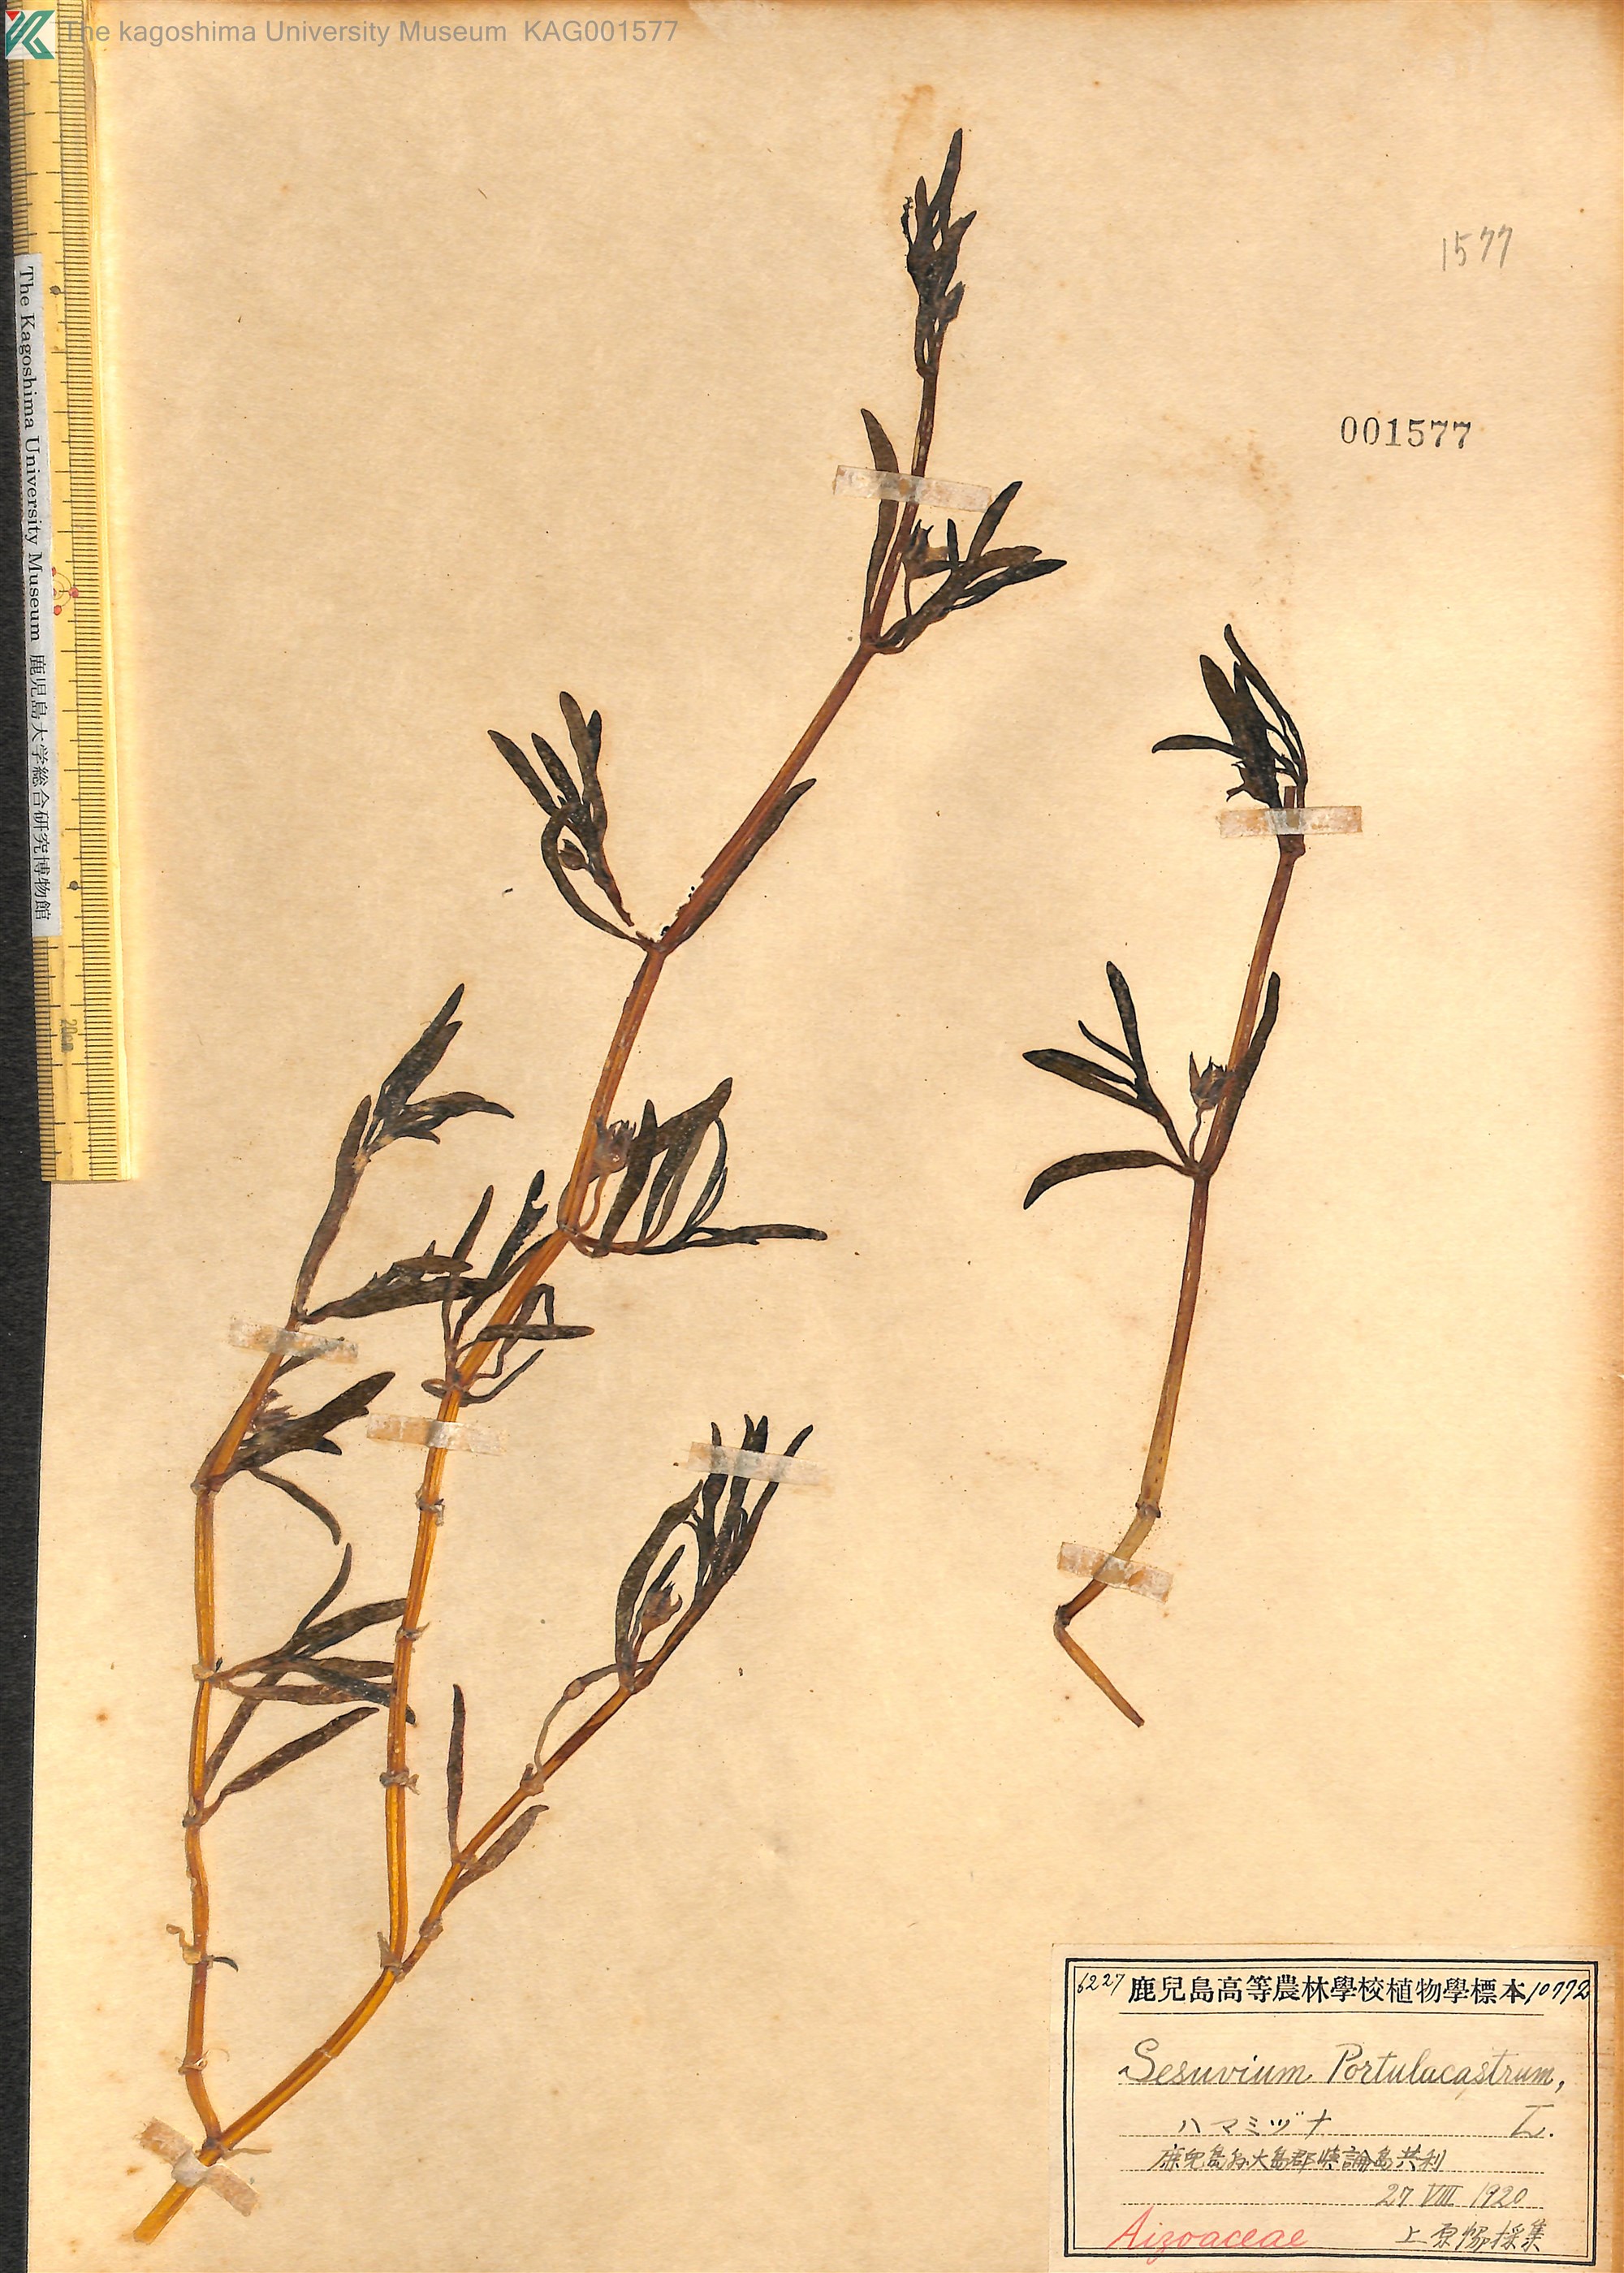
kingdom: Plantae
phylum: Tracheophyta
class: Magnoliopsida
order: Caryophyllales
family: Aizoaceae
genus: Sesuvium
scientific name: Sesuvium portulacastrum
